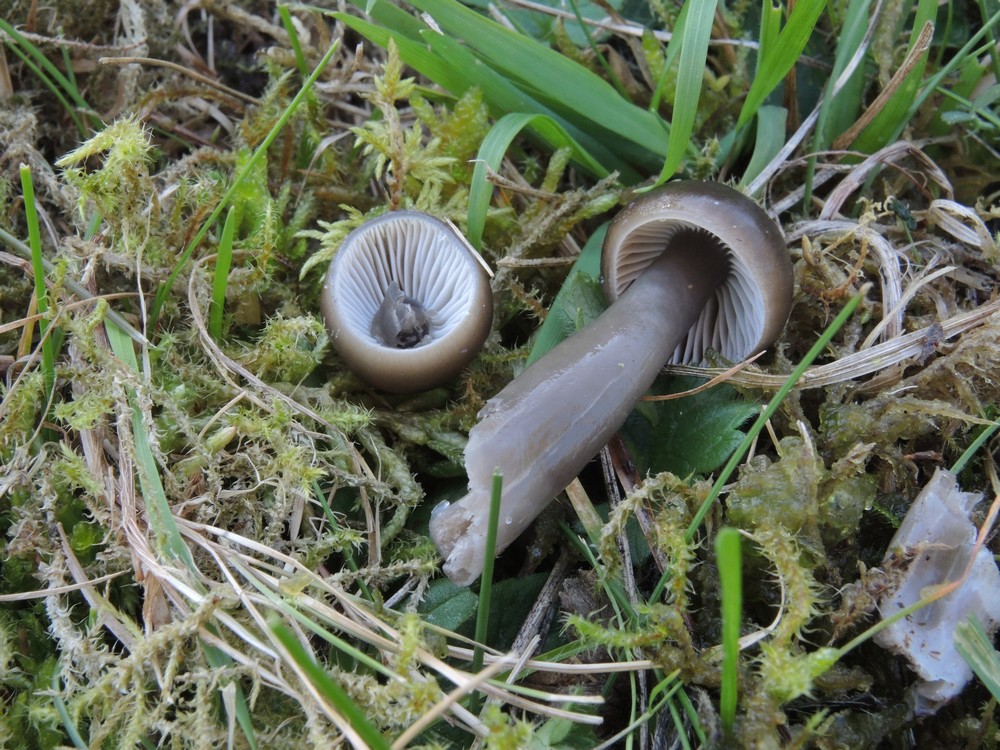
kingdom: Fungi
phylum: Basidiomycota
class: Agaricomycetes
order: Agaricales
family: Hygrophoraceae
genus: Gliophorus
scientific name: Gliophorus irrigatus
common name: slimet vokshat
